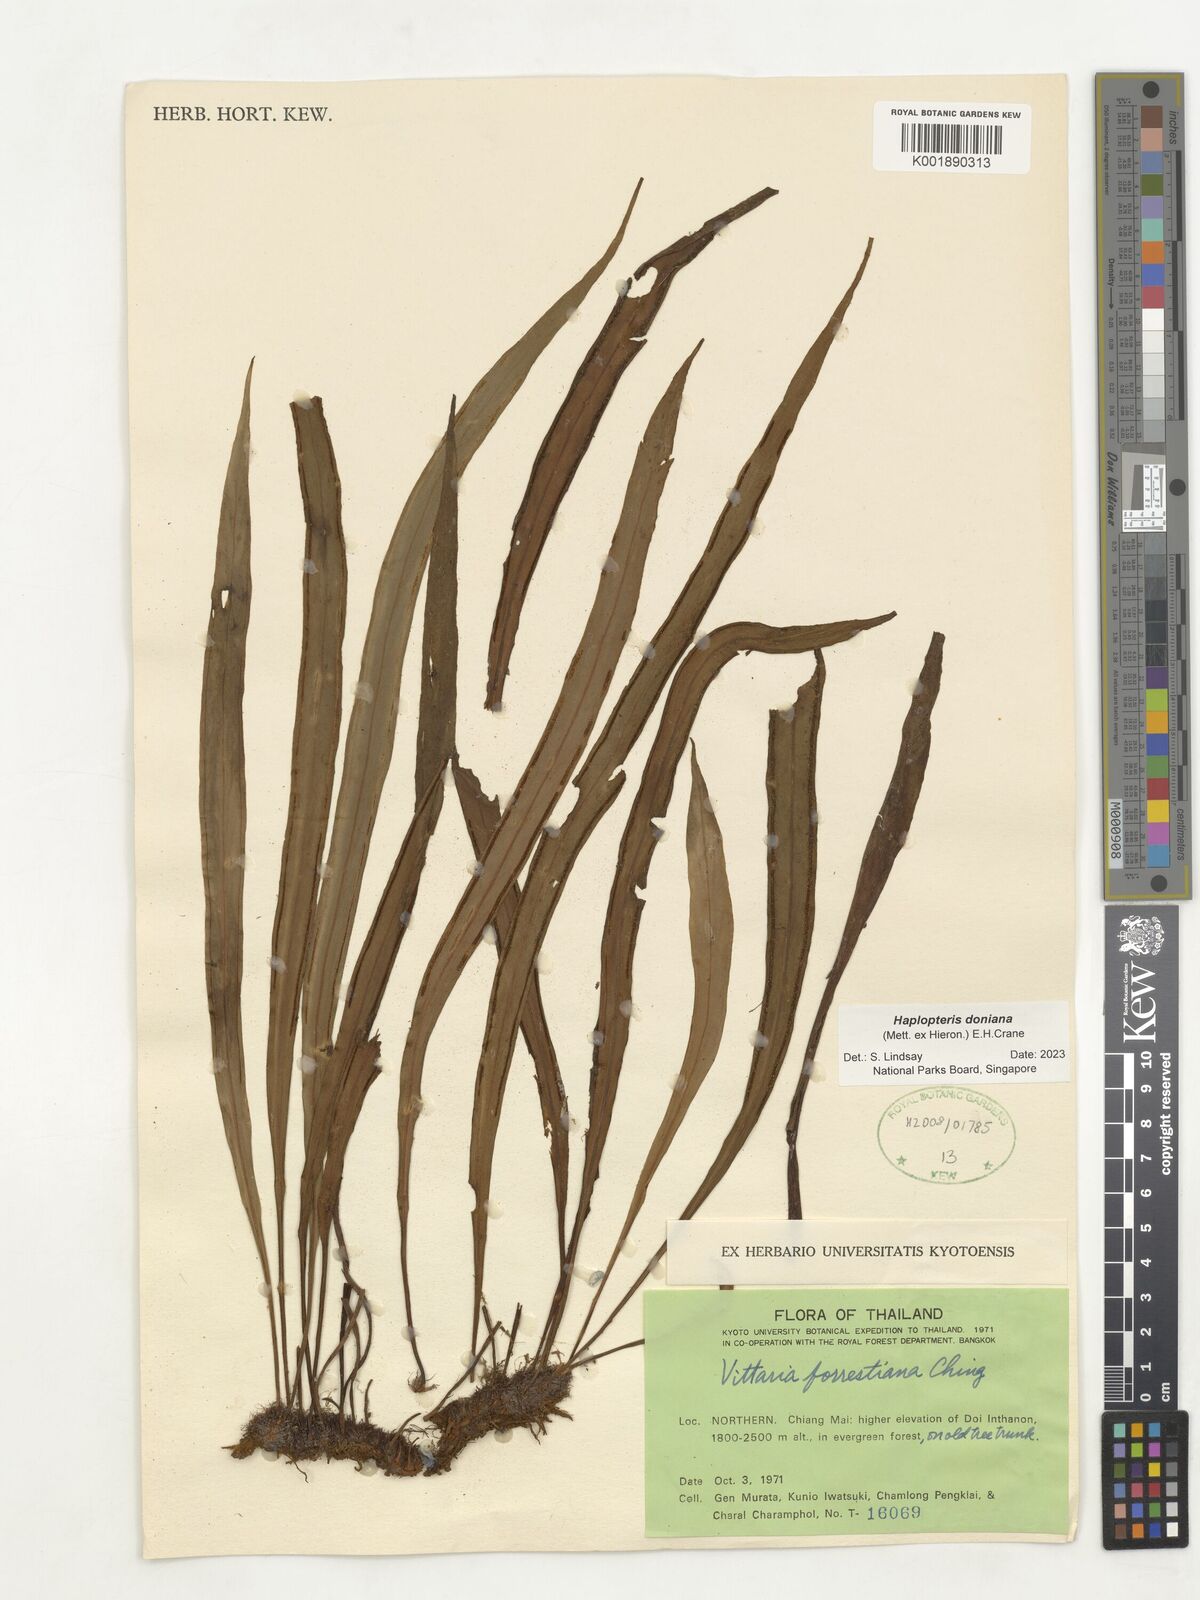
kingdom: Plantae
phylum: Tracheophyta
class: Polypodiopsida
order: Polypodiales
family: Pteridaceae
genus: Haplopteris
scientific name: Haplopteris taeniophylla
